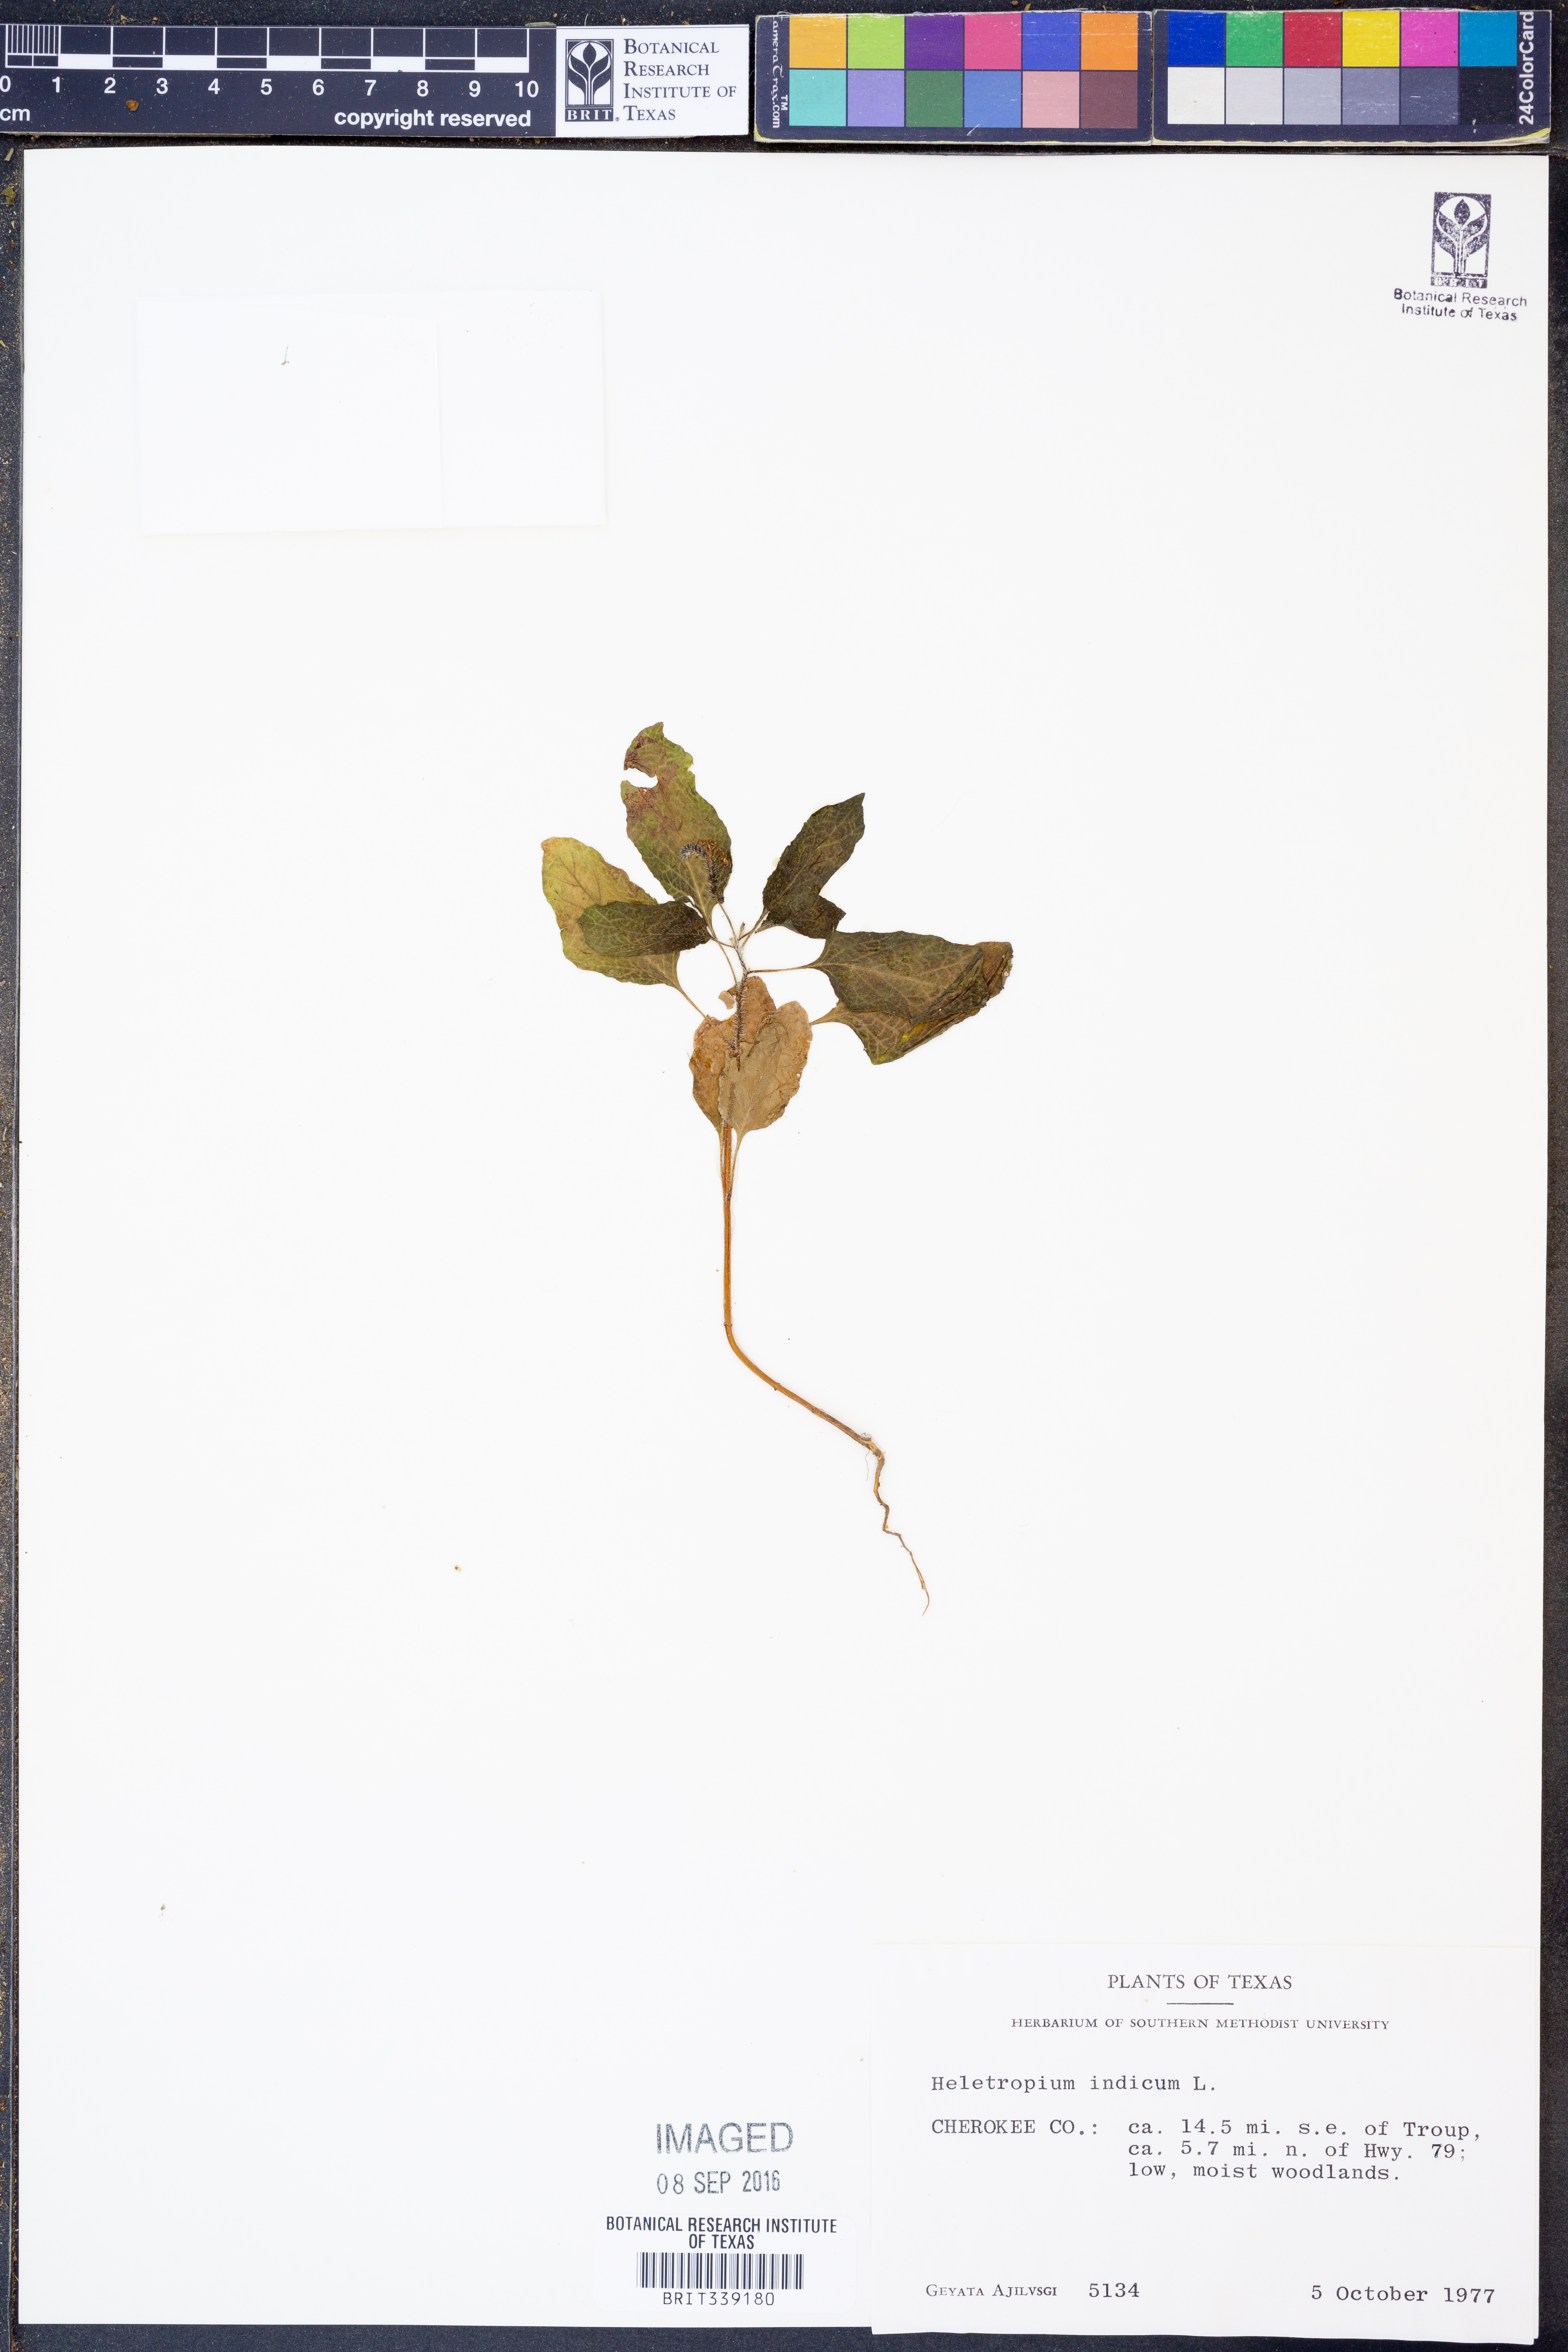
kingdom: Plantae
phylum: Tracheophyta
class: Magnoliopsida
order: Boraginales
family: Heliotropiaceae
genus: Heliotropium
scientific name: Heliotropium indicum
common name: Indian heliotrope
